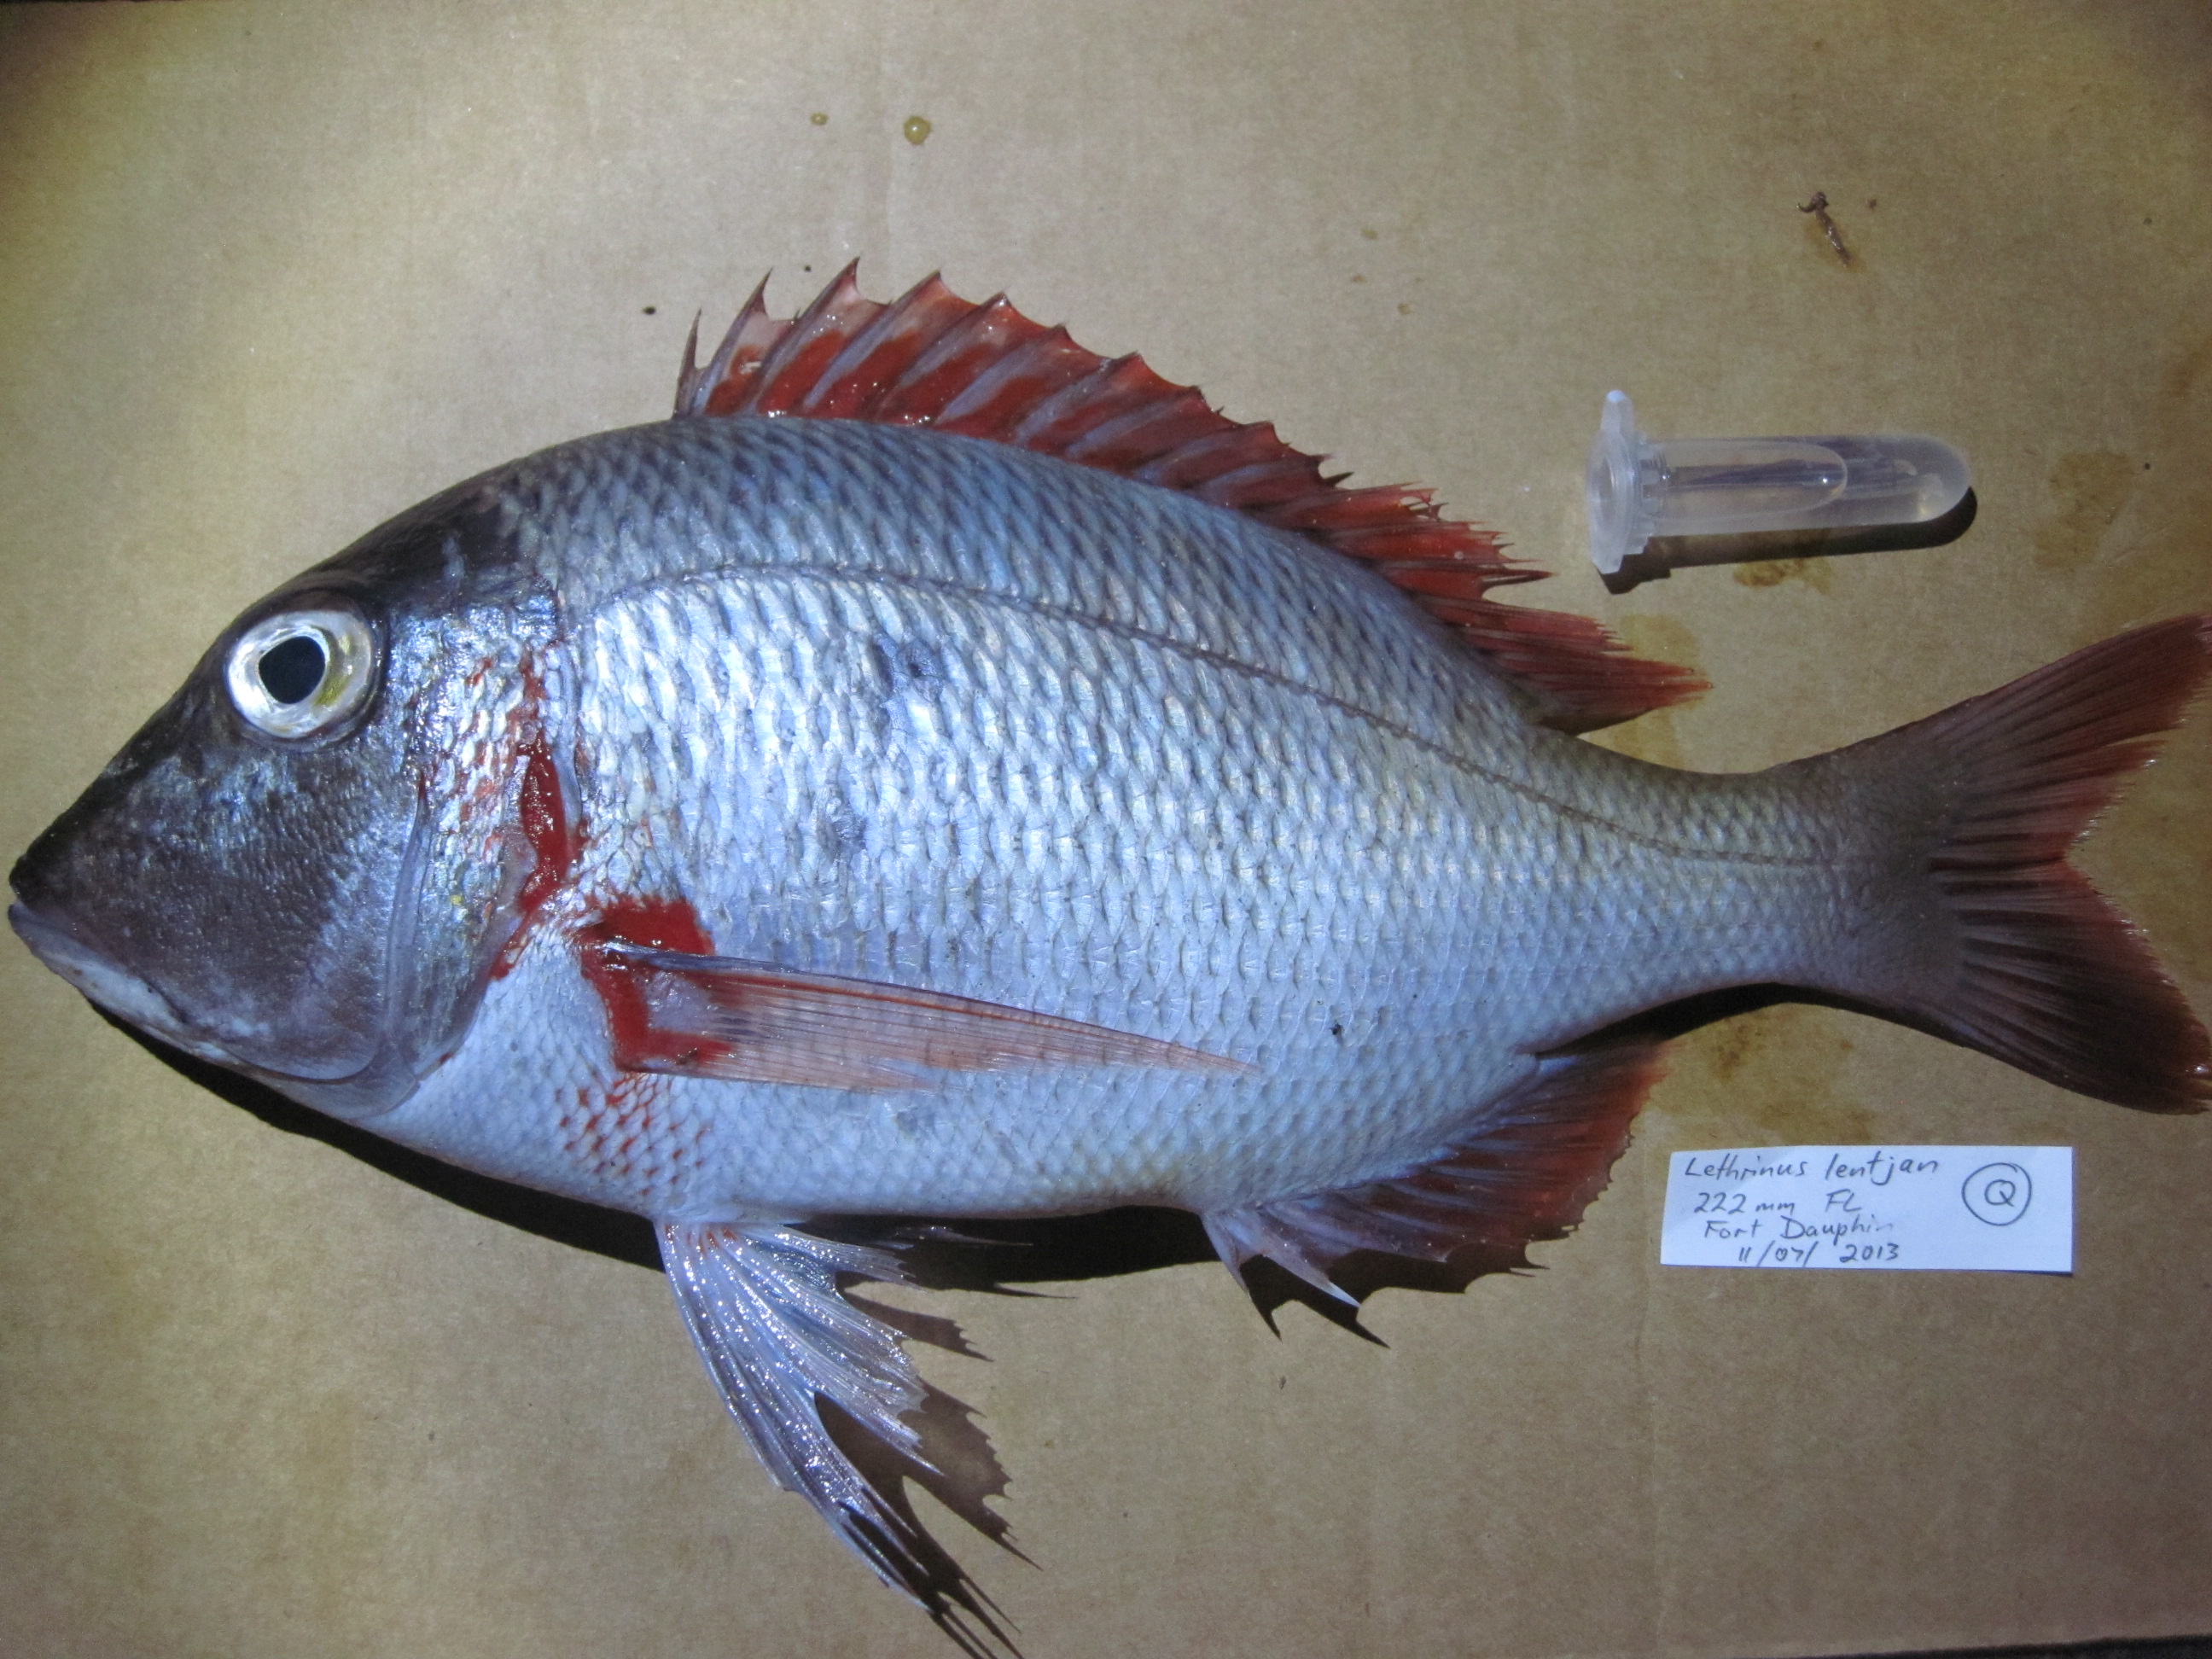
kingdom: Animalia
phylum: Chordata
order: Perciformes
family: Lethrinidae
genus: Lethrinus
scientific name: Lethrinus rubrioperculatus
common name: Spotcheek emperor
